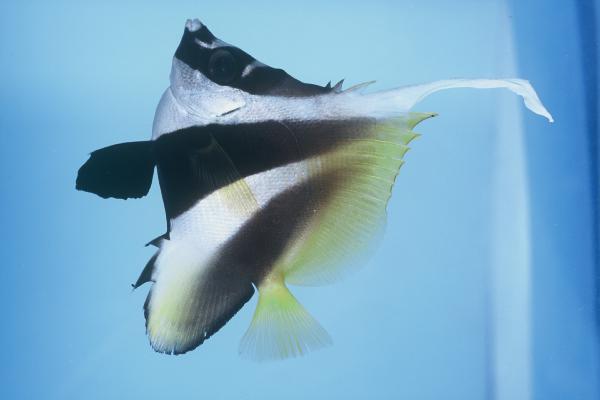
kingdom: Animalia
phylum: Chordata
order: Perciformes
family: Chaetodontidae
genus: Heniochus
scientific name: Heniochus monoceros
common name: Masked bannerfish
